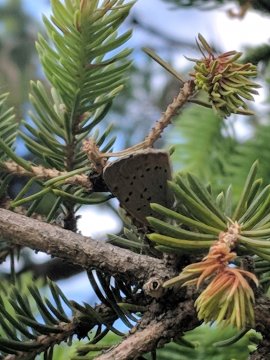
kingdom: Animalia
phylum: Arthropoda
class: Insecta
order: Lepidoptera
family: Lycaenidae
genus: Lycaena
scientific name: Lycaena phlaeas
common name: American Copper
